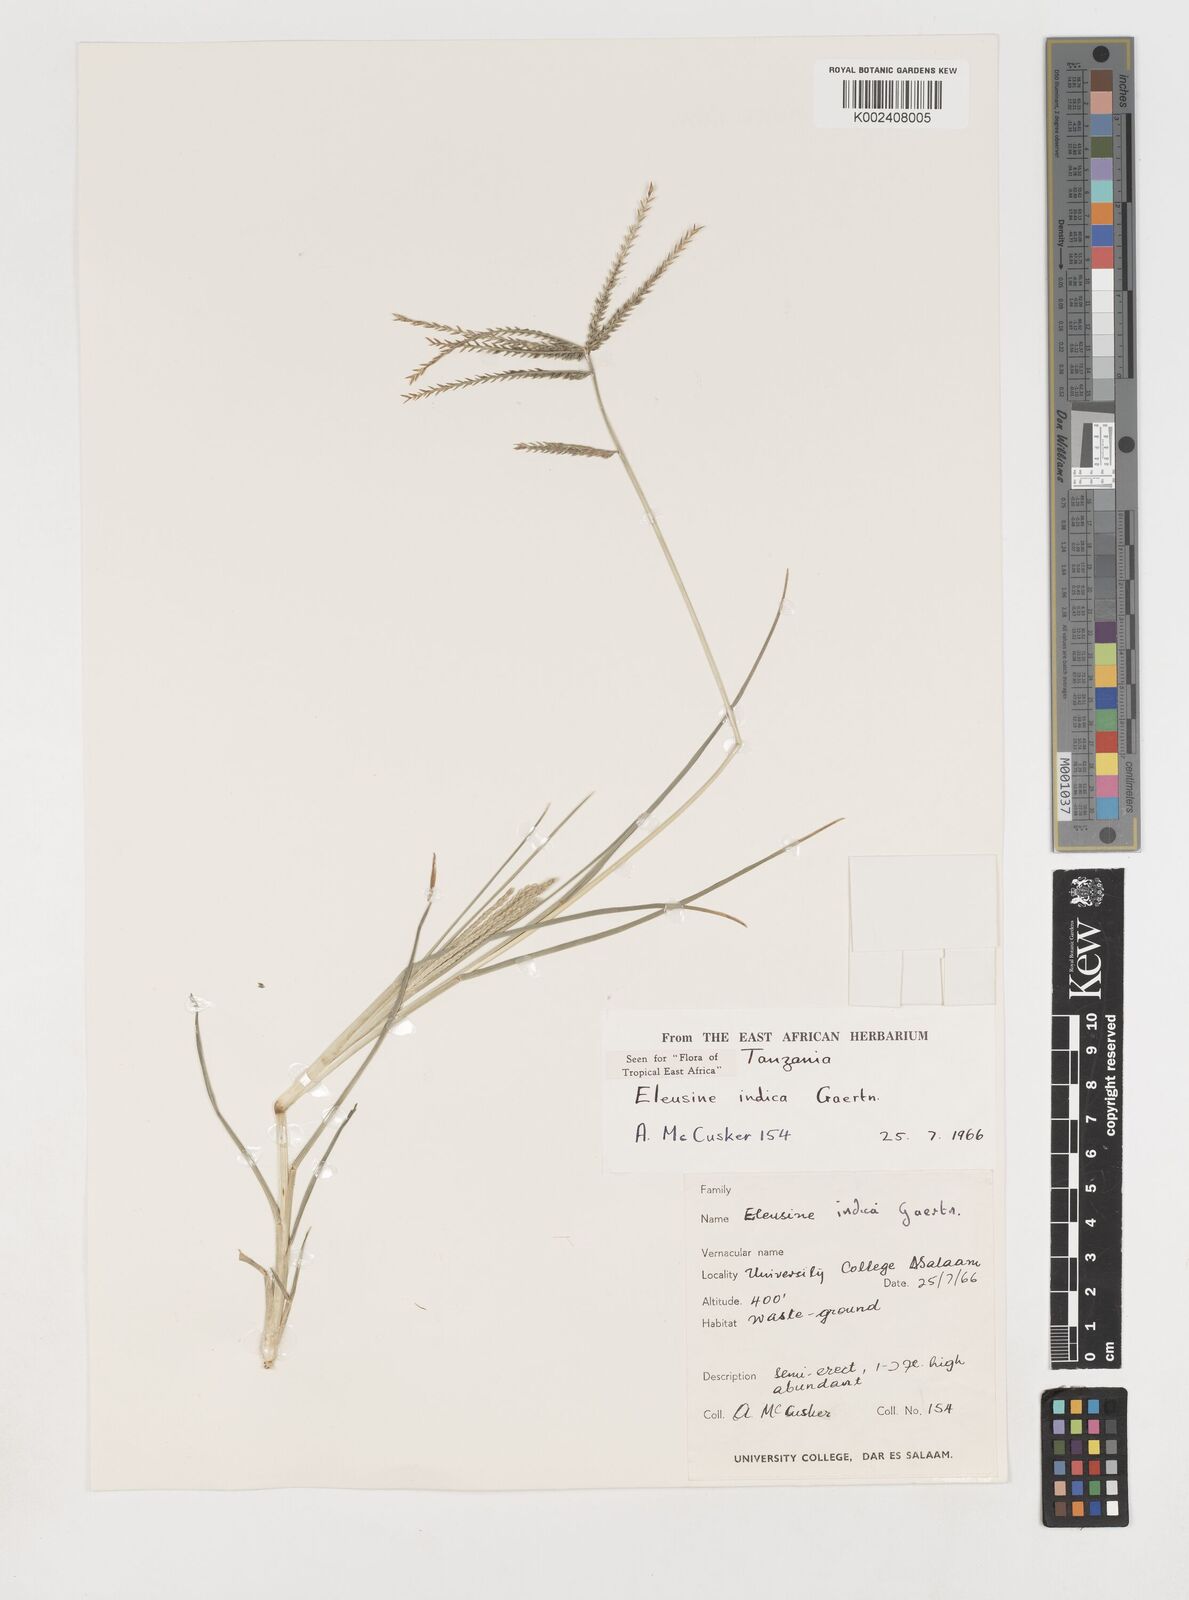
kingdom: Plantae
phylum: Tracheophyta
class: Liliopsida
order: Poales
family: Poaceae
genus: Eleusine
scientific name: Eleusine indica
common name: Yard-grass
